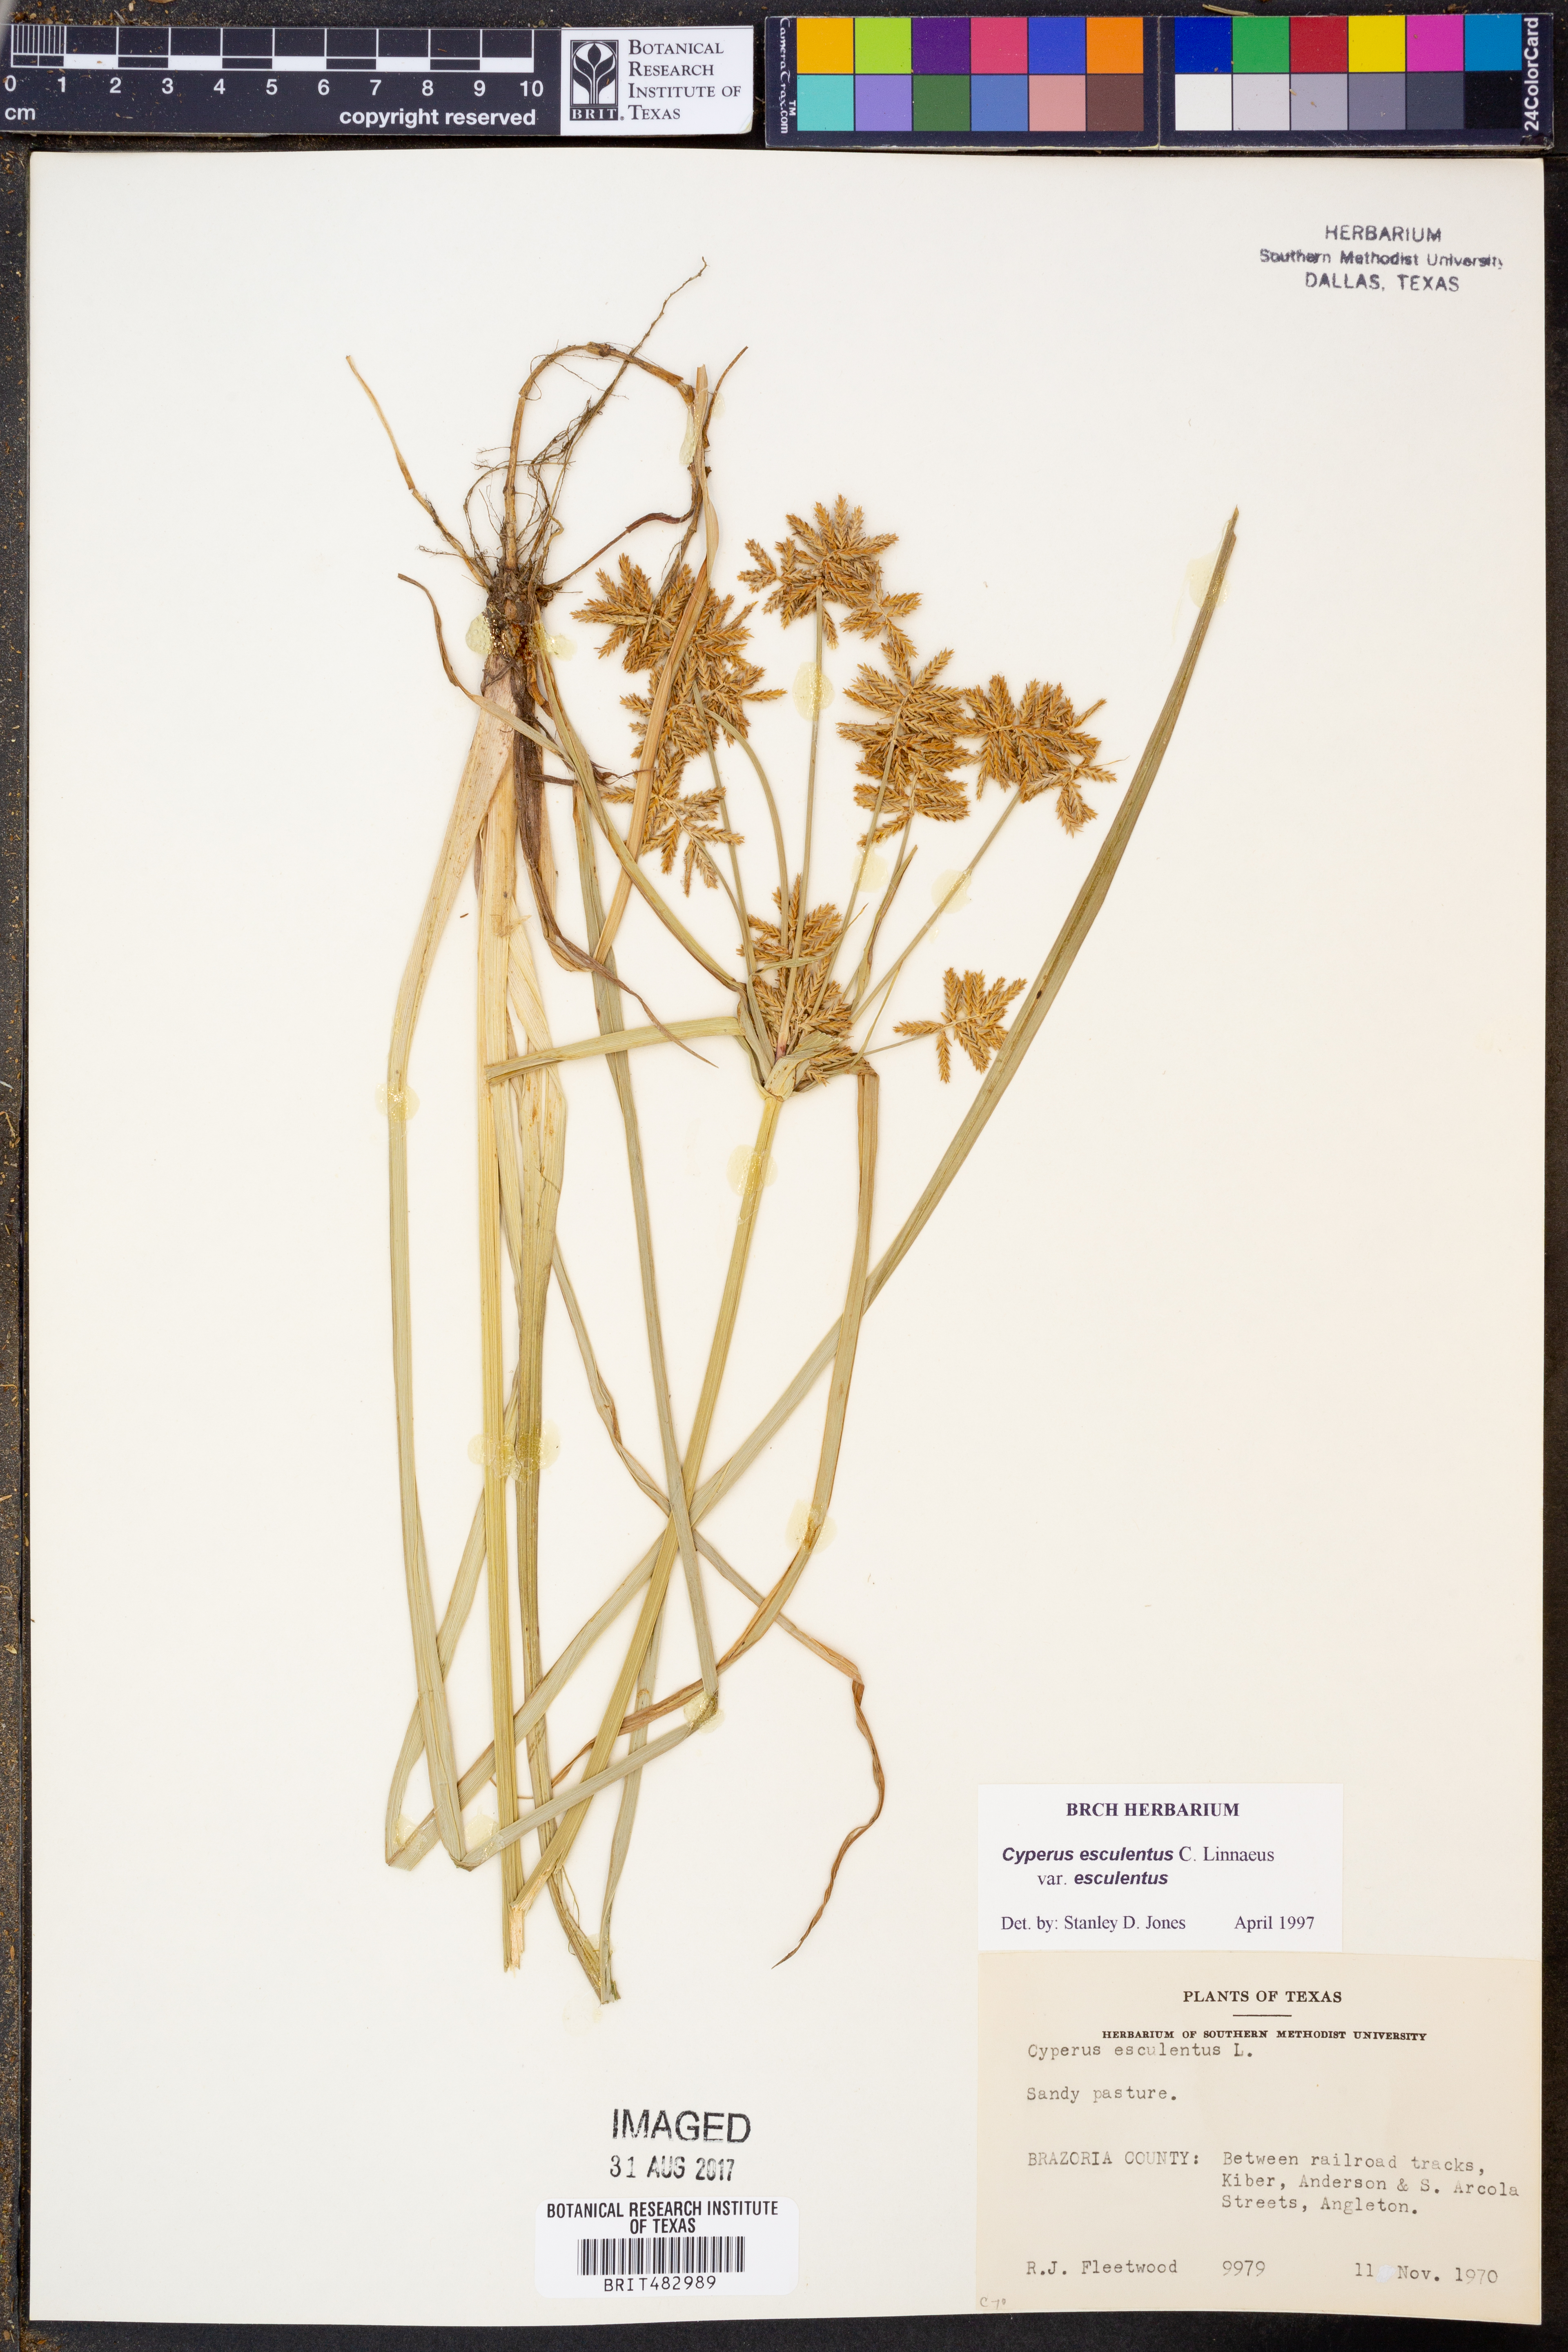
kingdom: Plantae
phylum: Tracheophyta
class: Liliopsida
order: Poales
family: Cyperaceae
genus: Cyperus
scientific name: Cyperus esculentus
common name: Yellow nutsedge
